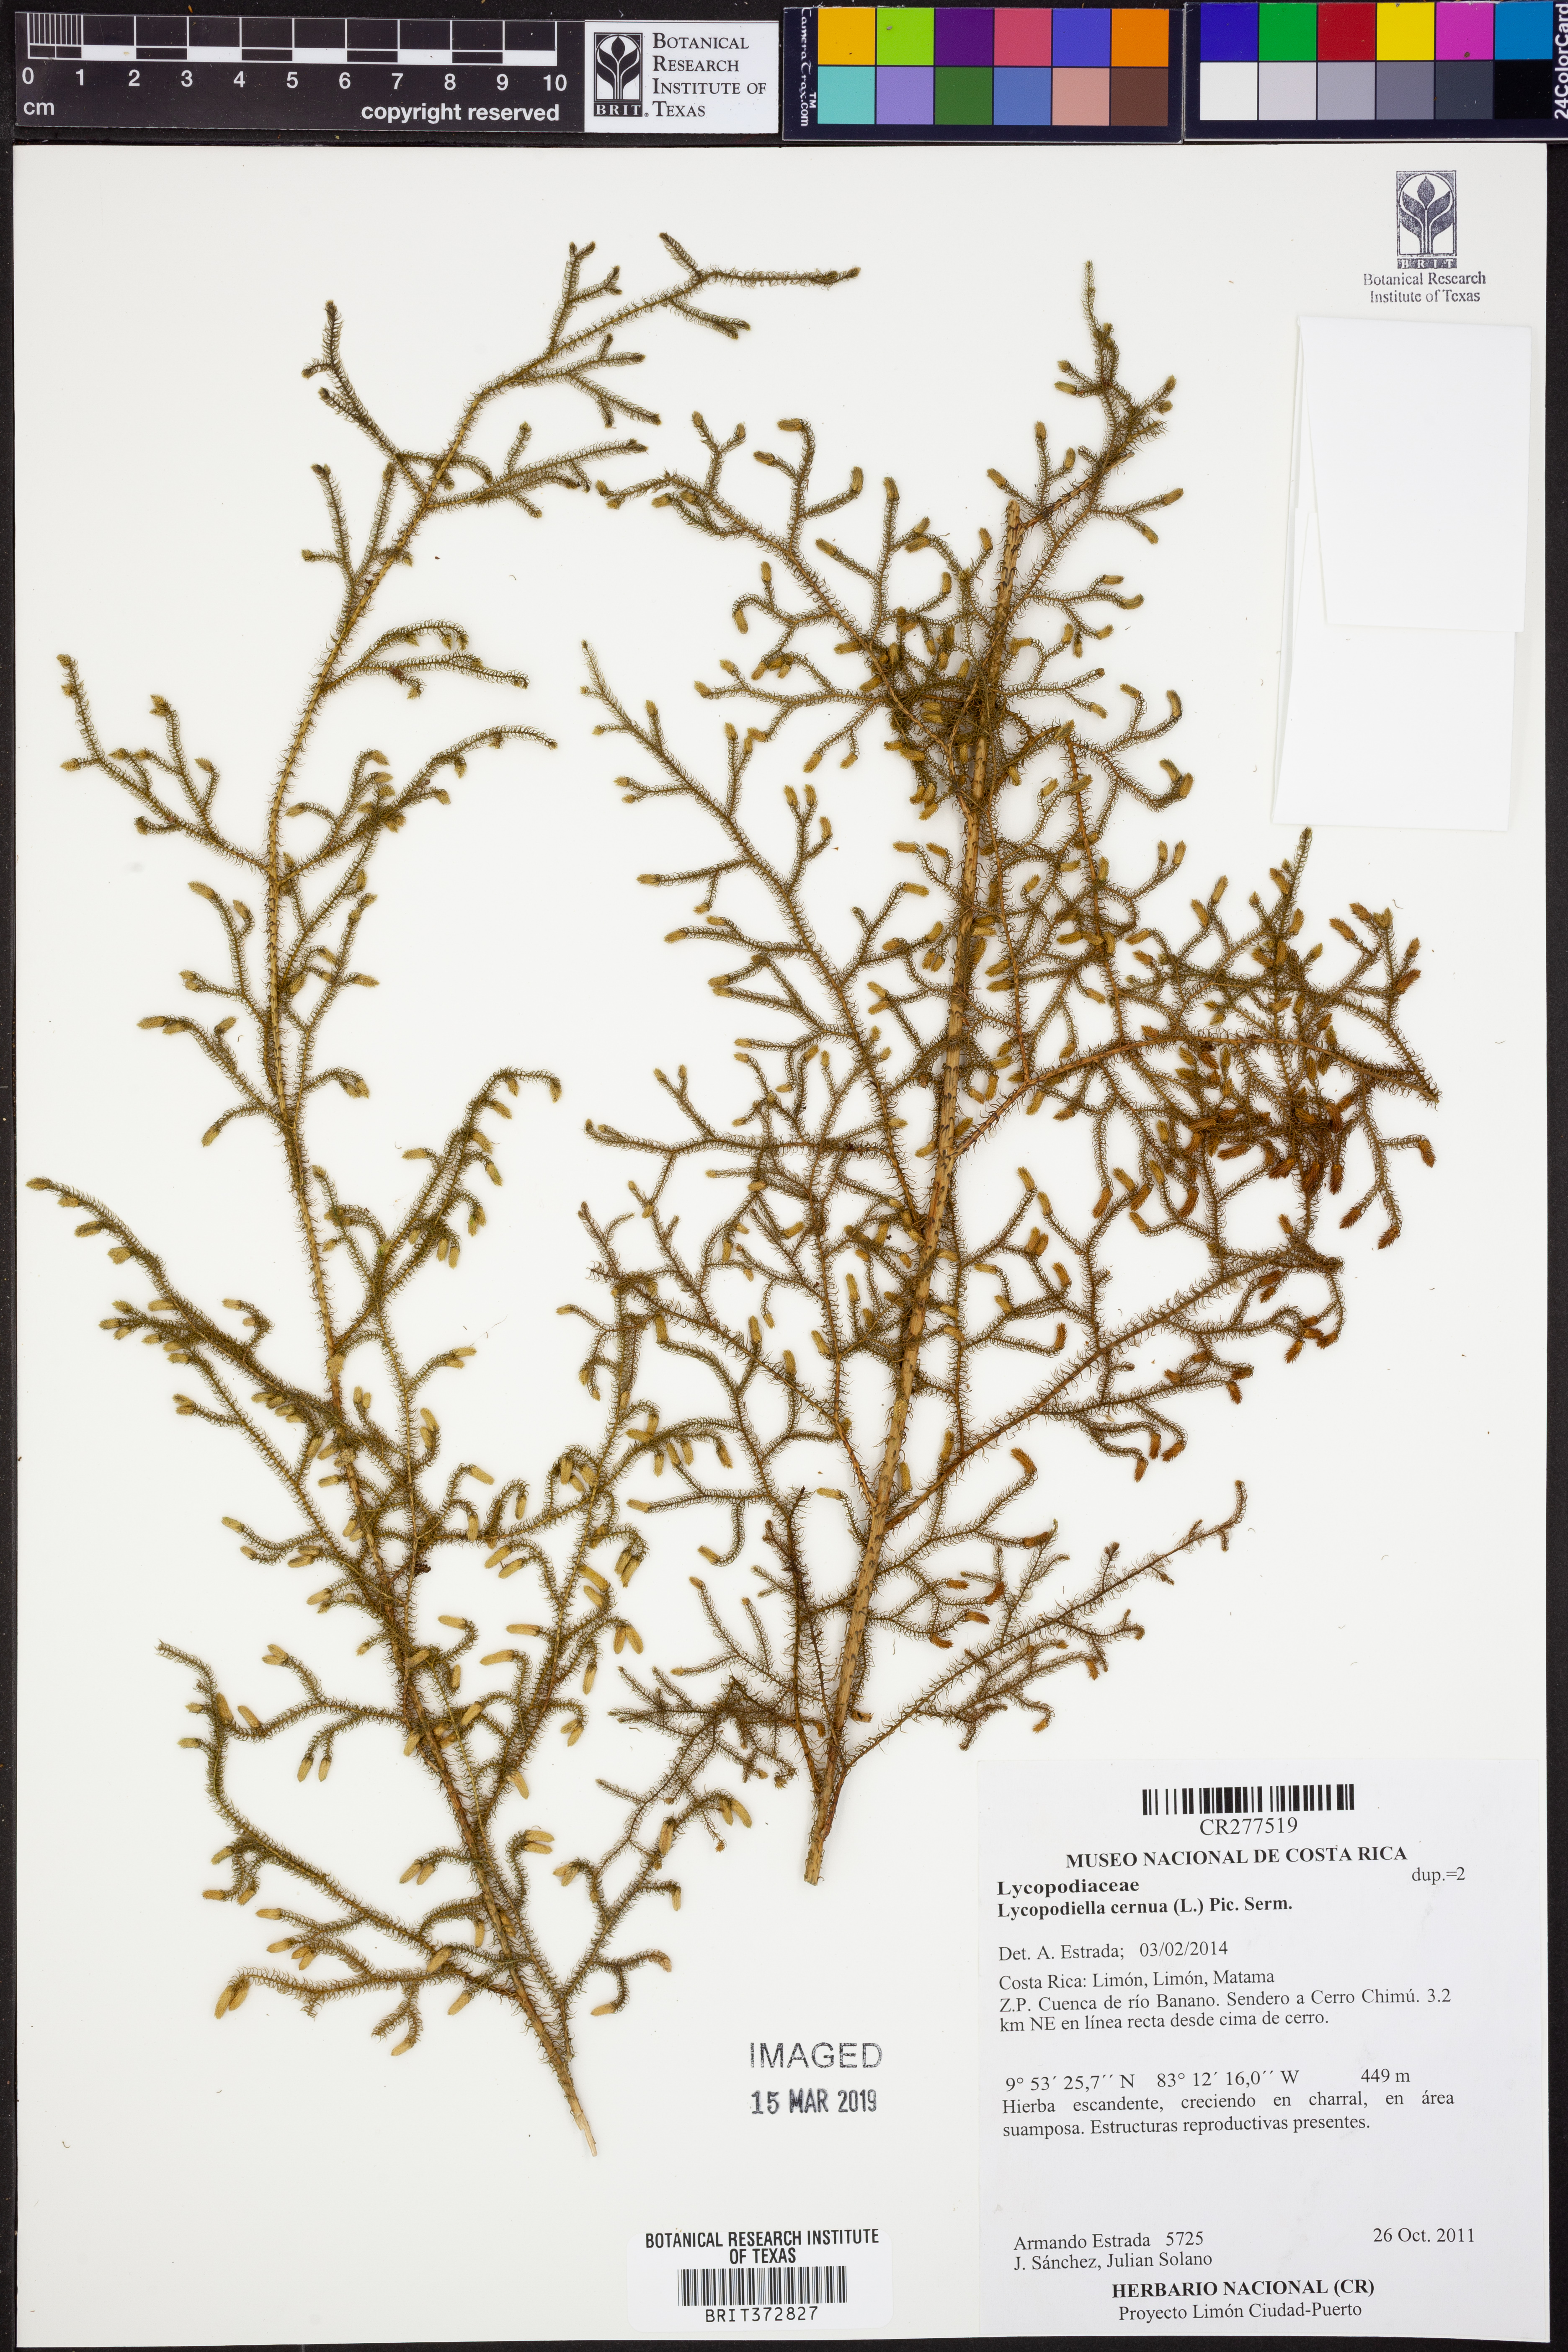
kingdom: Plantae
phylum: Tracheophyta
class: Lycopodiopsida
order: Lycopodiales
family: Lycopodiaceae
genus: Palhinhaea
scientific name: Palhinhaea cernua
